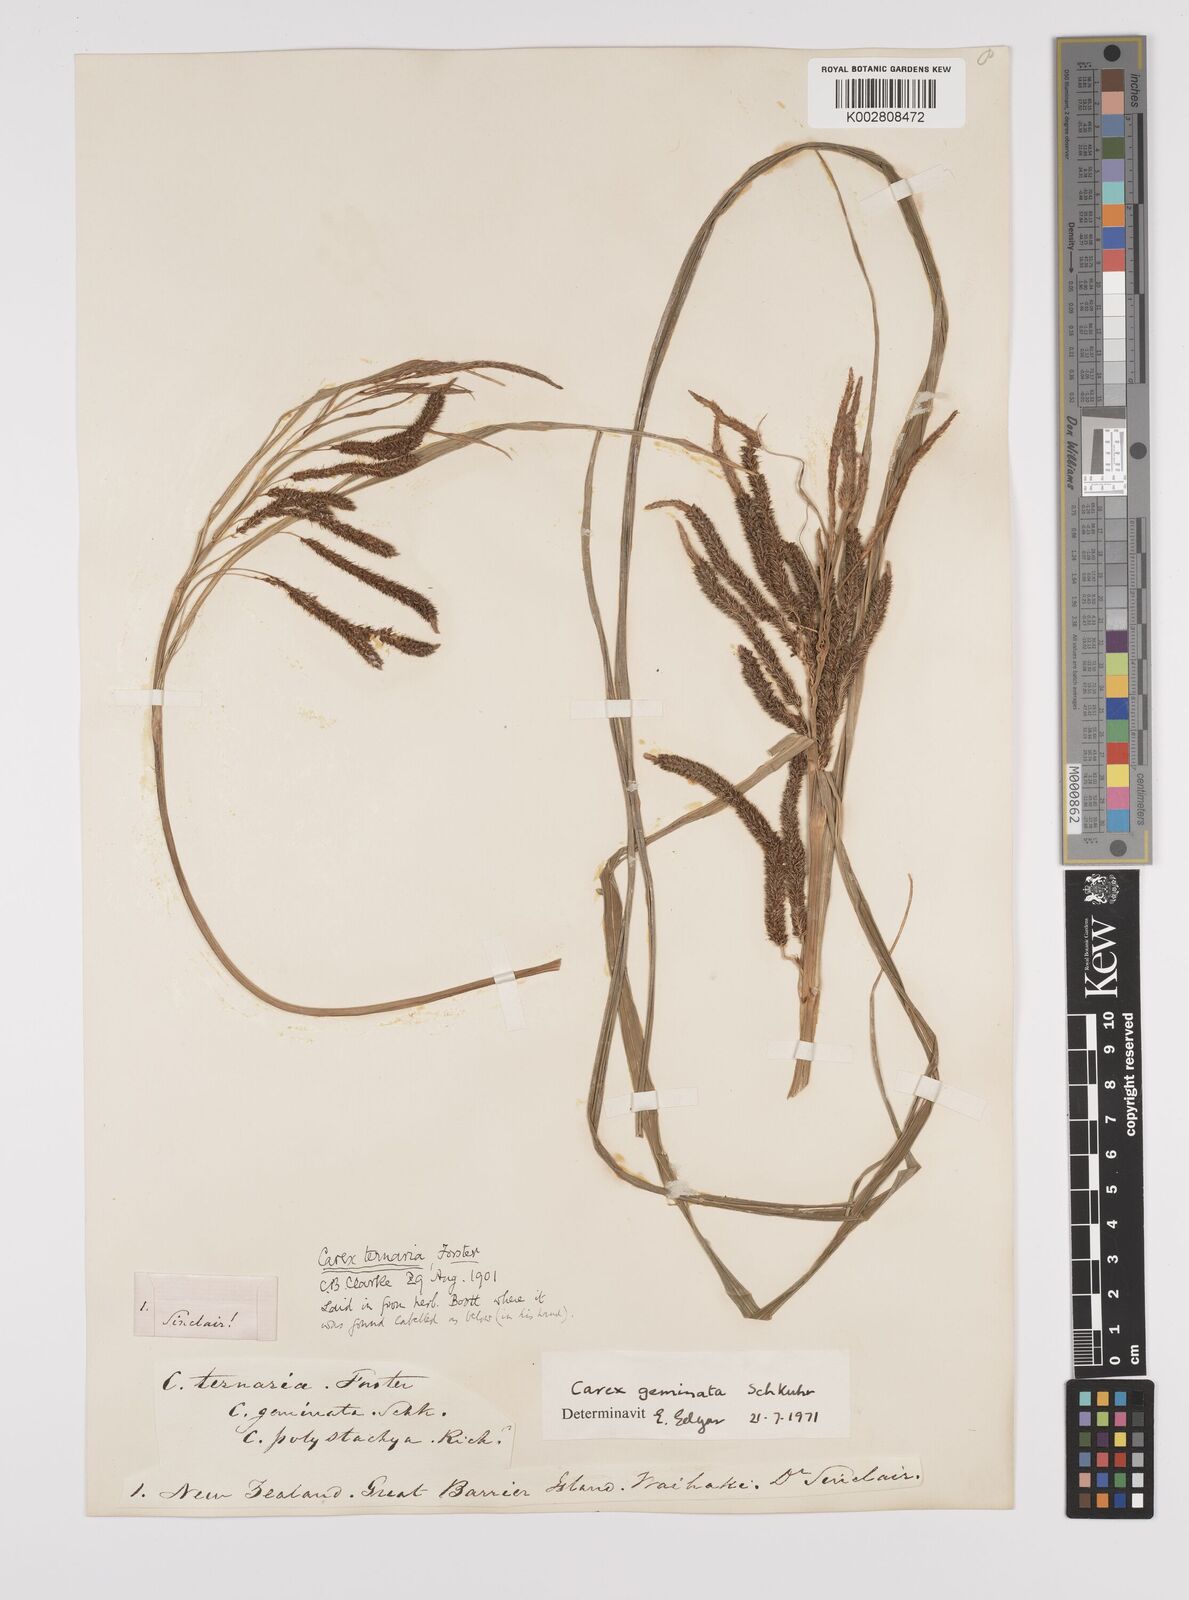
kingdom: Plantae
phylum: Tracheophyta
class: Liliopsida
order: Poales
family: Cyperaceae
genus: Carex
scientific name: Carex geminata
